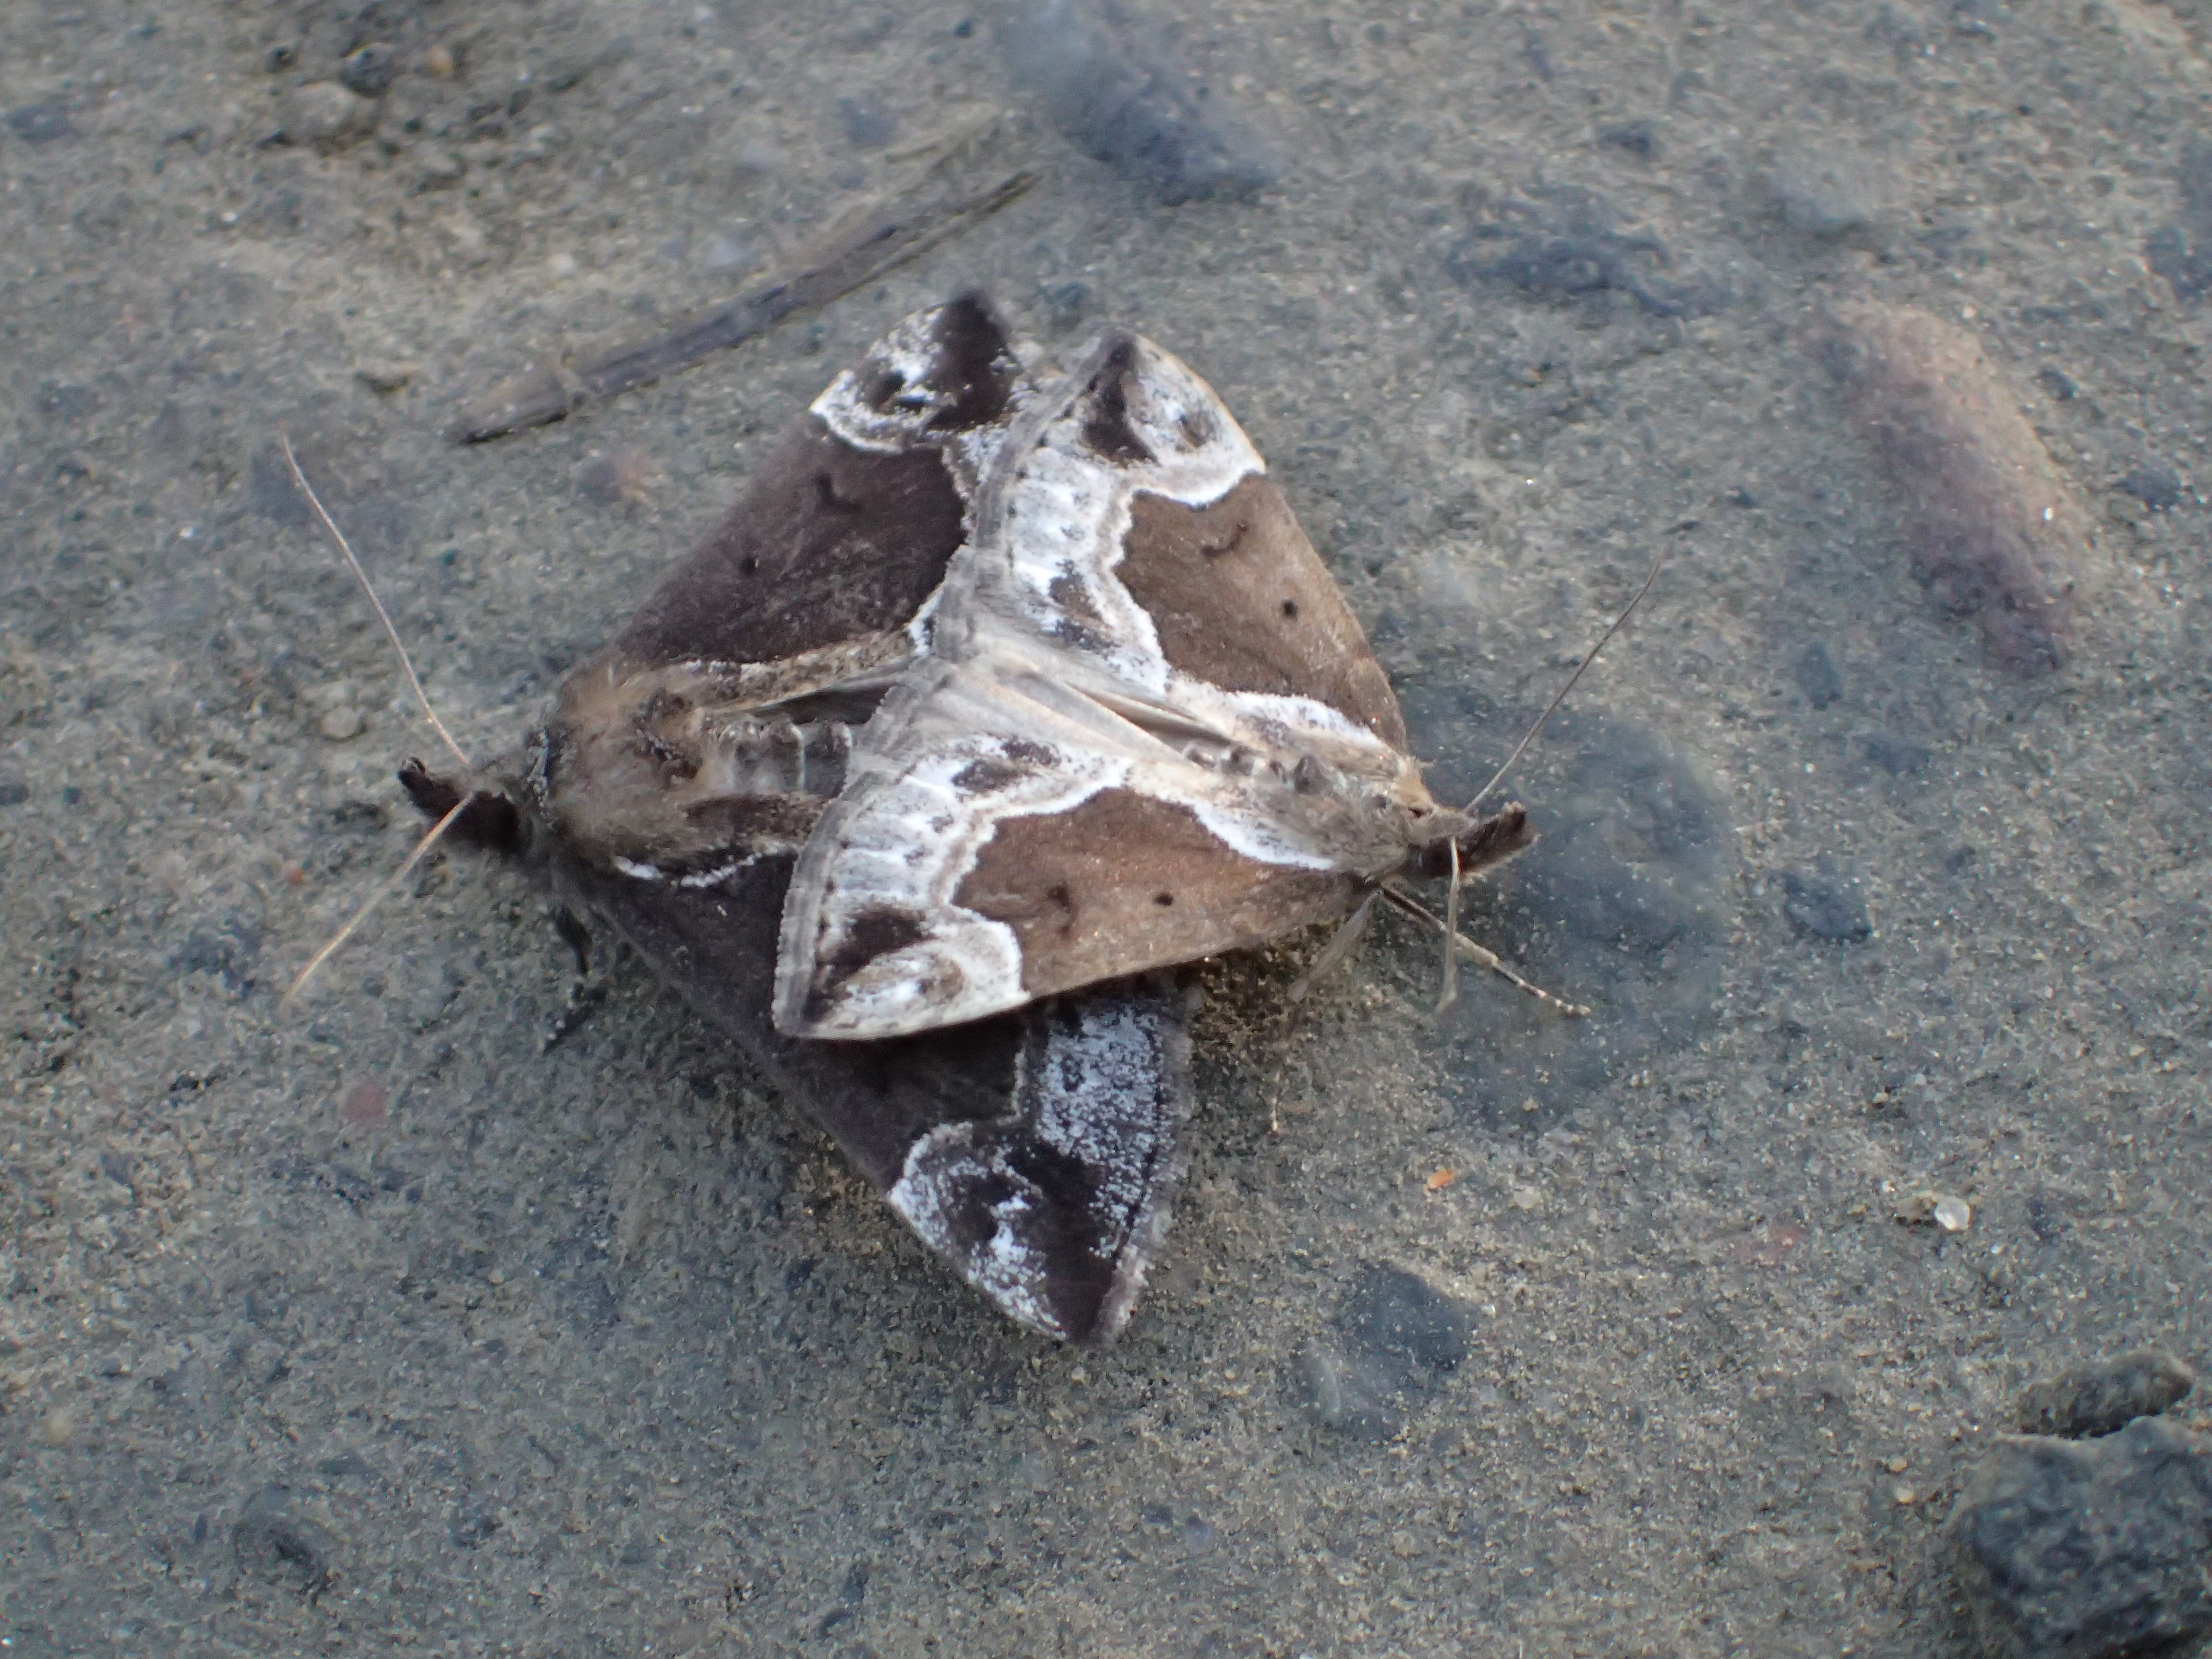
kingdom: Animalia
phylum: Arthropoda
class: Insecta
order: Lepidoptera
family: Erebidae
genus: Hypena
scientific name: Hypena crassalis
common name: Beautiful snout
